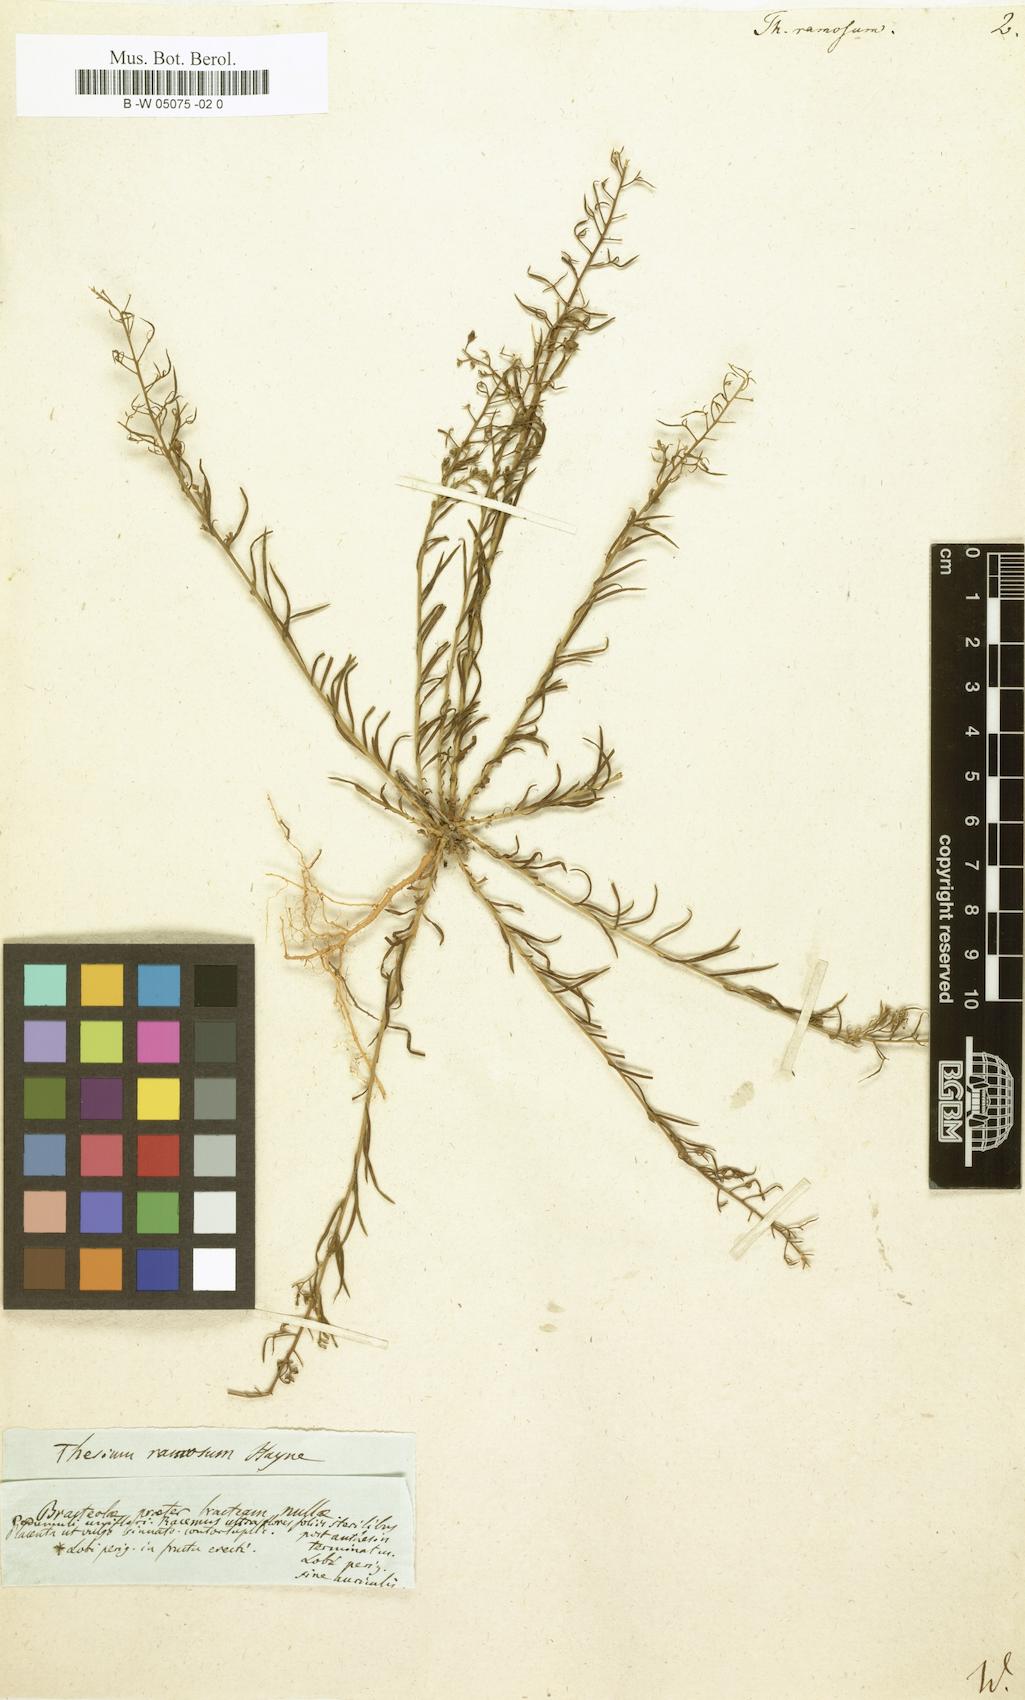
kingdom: Plantae
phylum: Tracheophyta
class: Magnoliopsida
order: Santalales
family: Thesiaceae
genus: Thesium
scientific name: Thesium ramosum
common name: Field thesium
